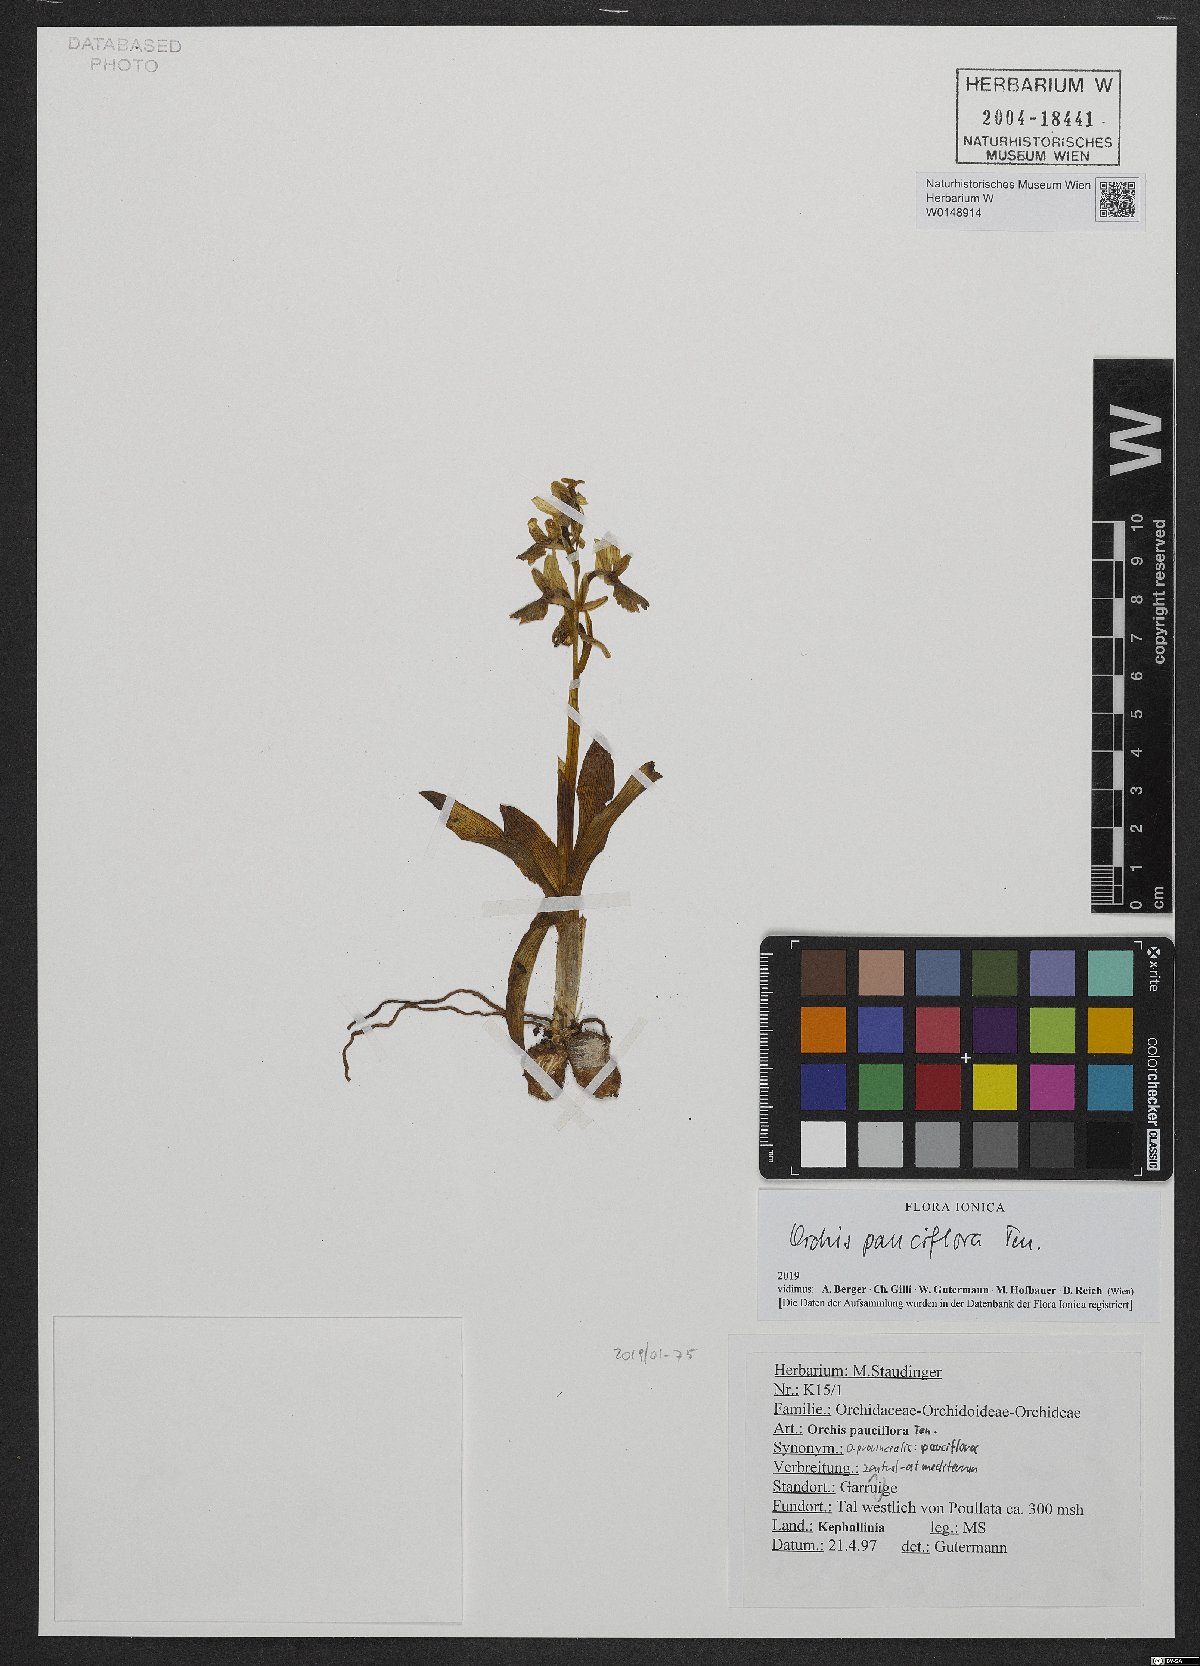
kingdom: Plantae
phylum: Tracheophyta
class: Liliopsida
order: Asparagales
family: Orchidaceae
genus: Orchis
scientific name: Orchis pauciflora
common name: Few-flowered orchid
